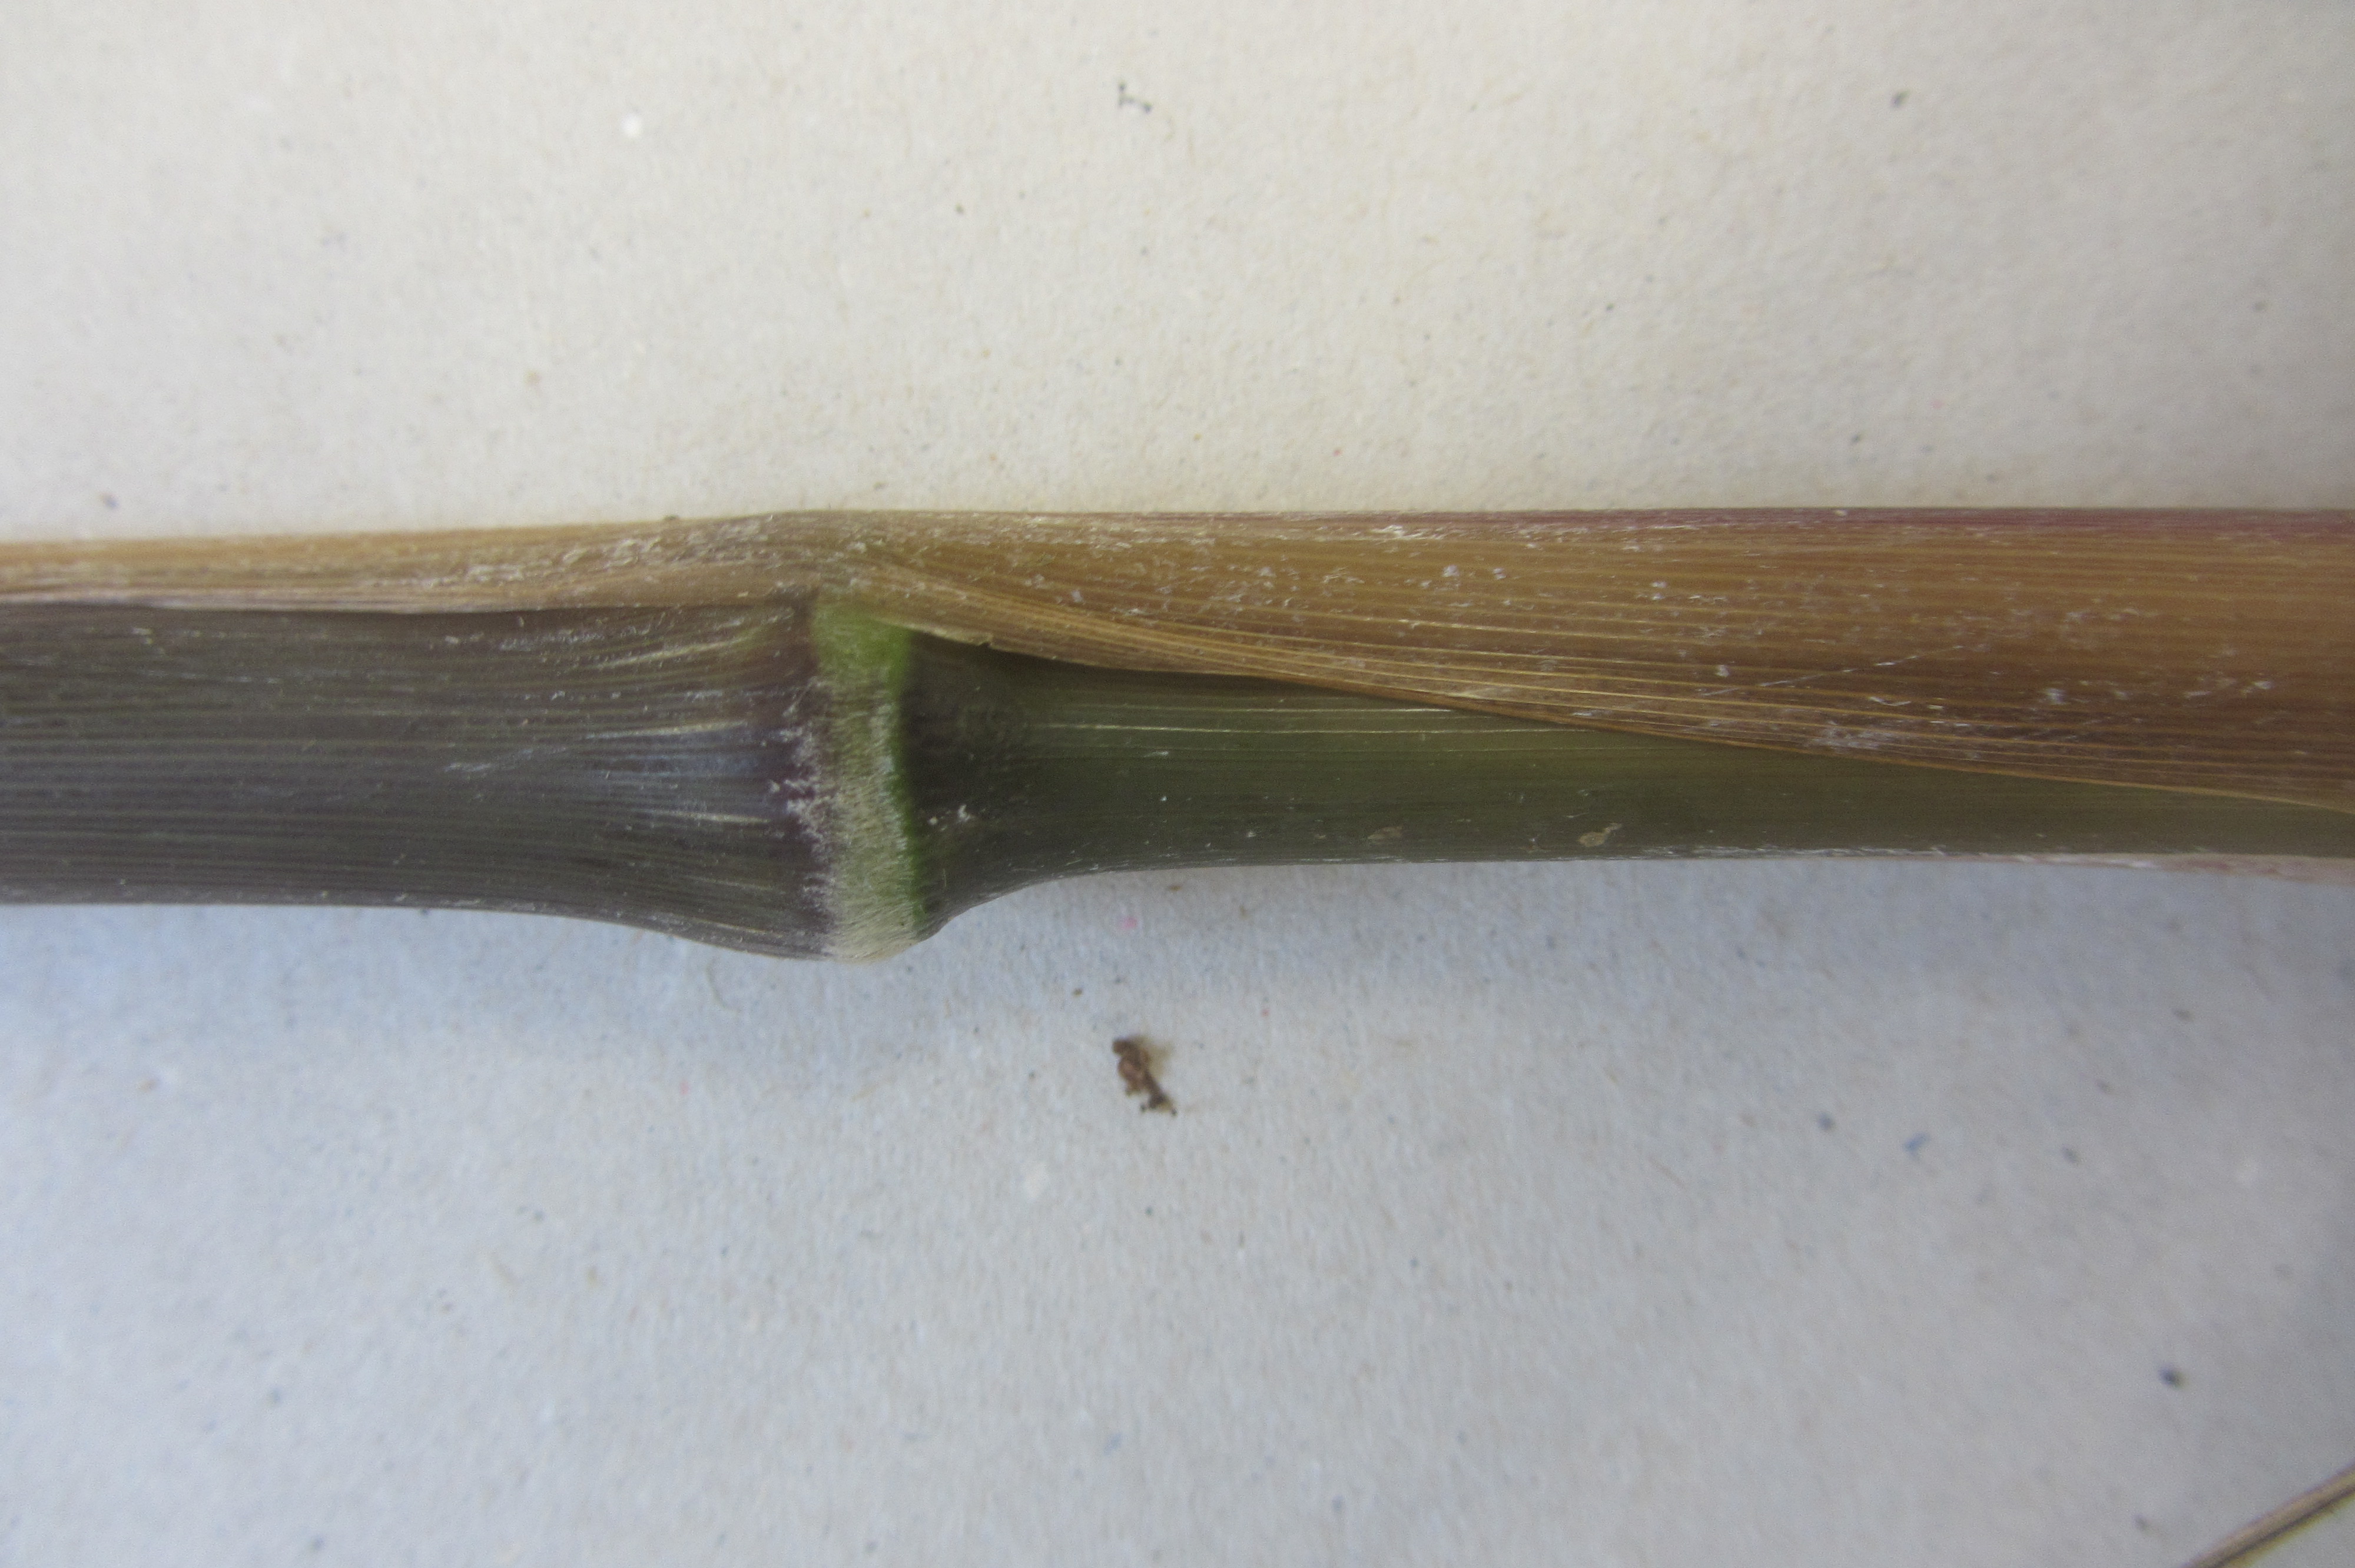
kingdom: Plantae
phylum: Tracheophyta
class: Liliopsida
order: Poales
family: Poaceae
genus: Cenchrus
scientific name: Cenchrus latifolius
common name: Sandbur
